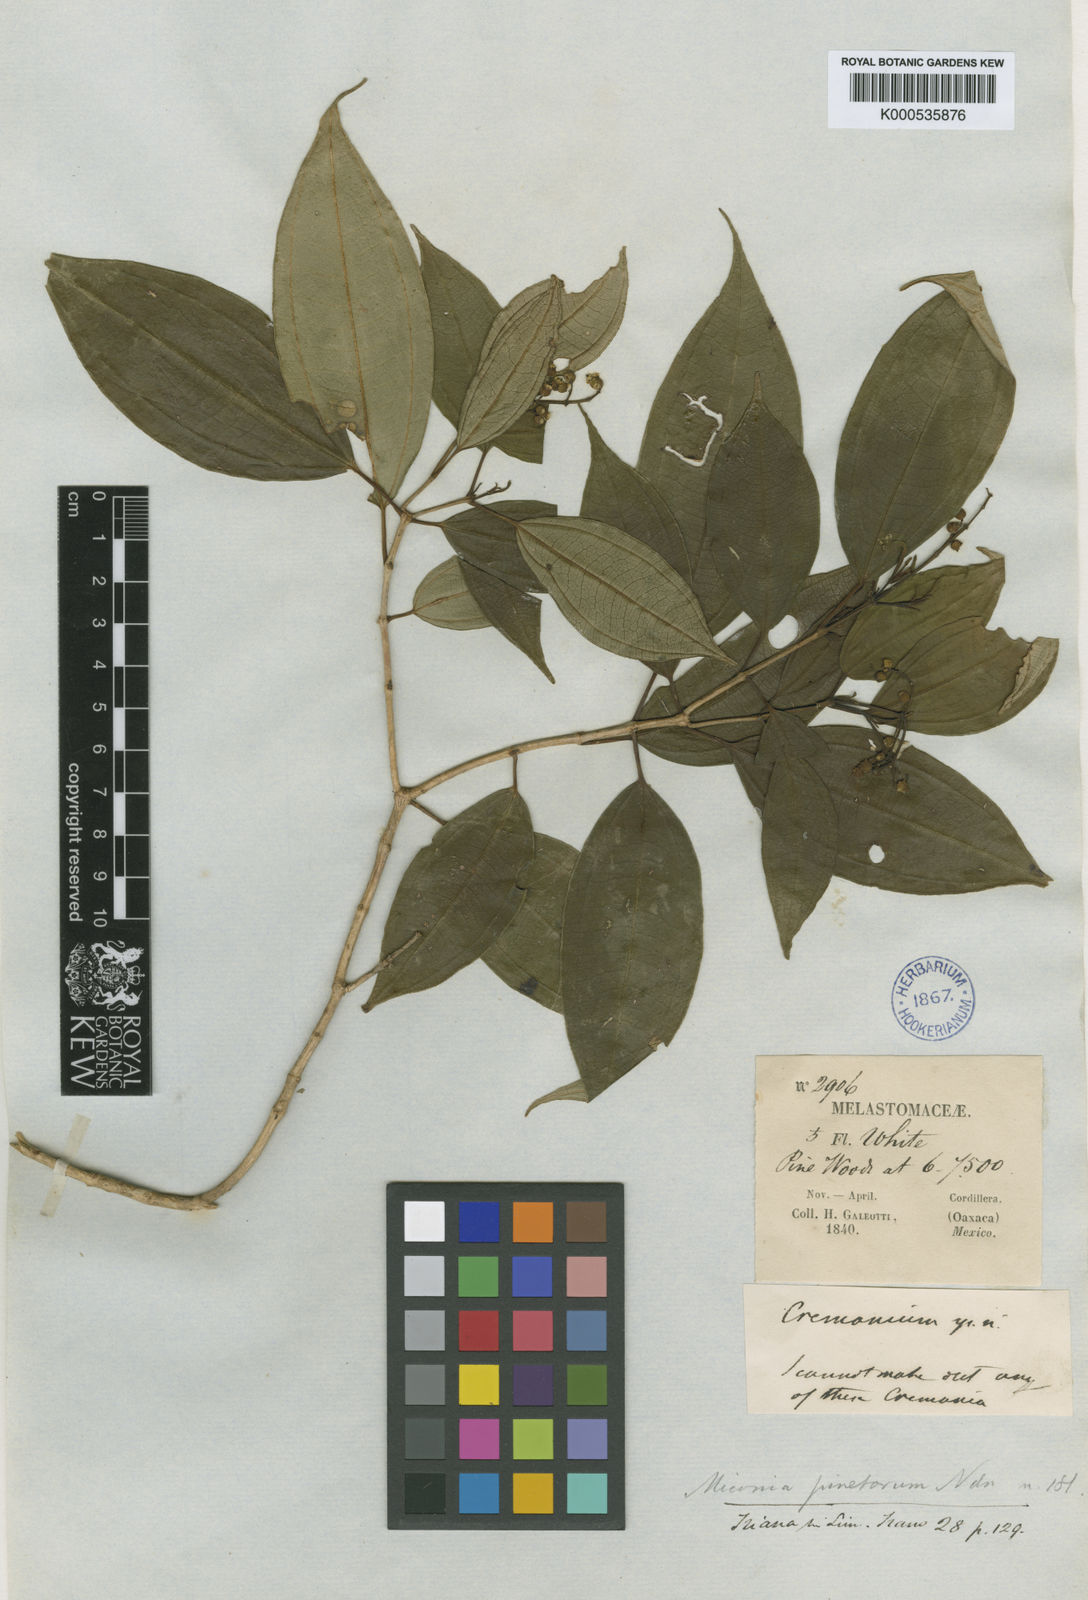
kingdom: Plantae
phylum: Tracheophyta
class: Magnoliopsida
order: Myrtales
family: Melastomataceae
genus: Miconia
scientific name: Miconia pinetorum
